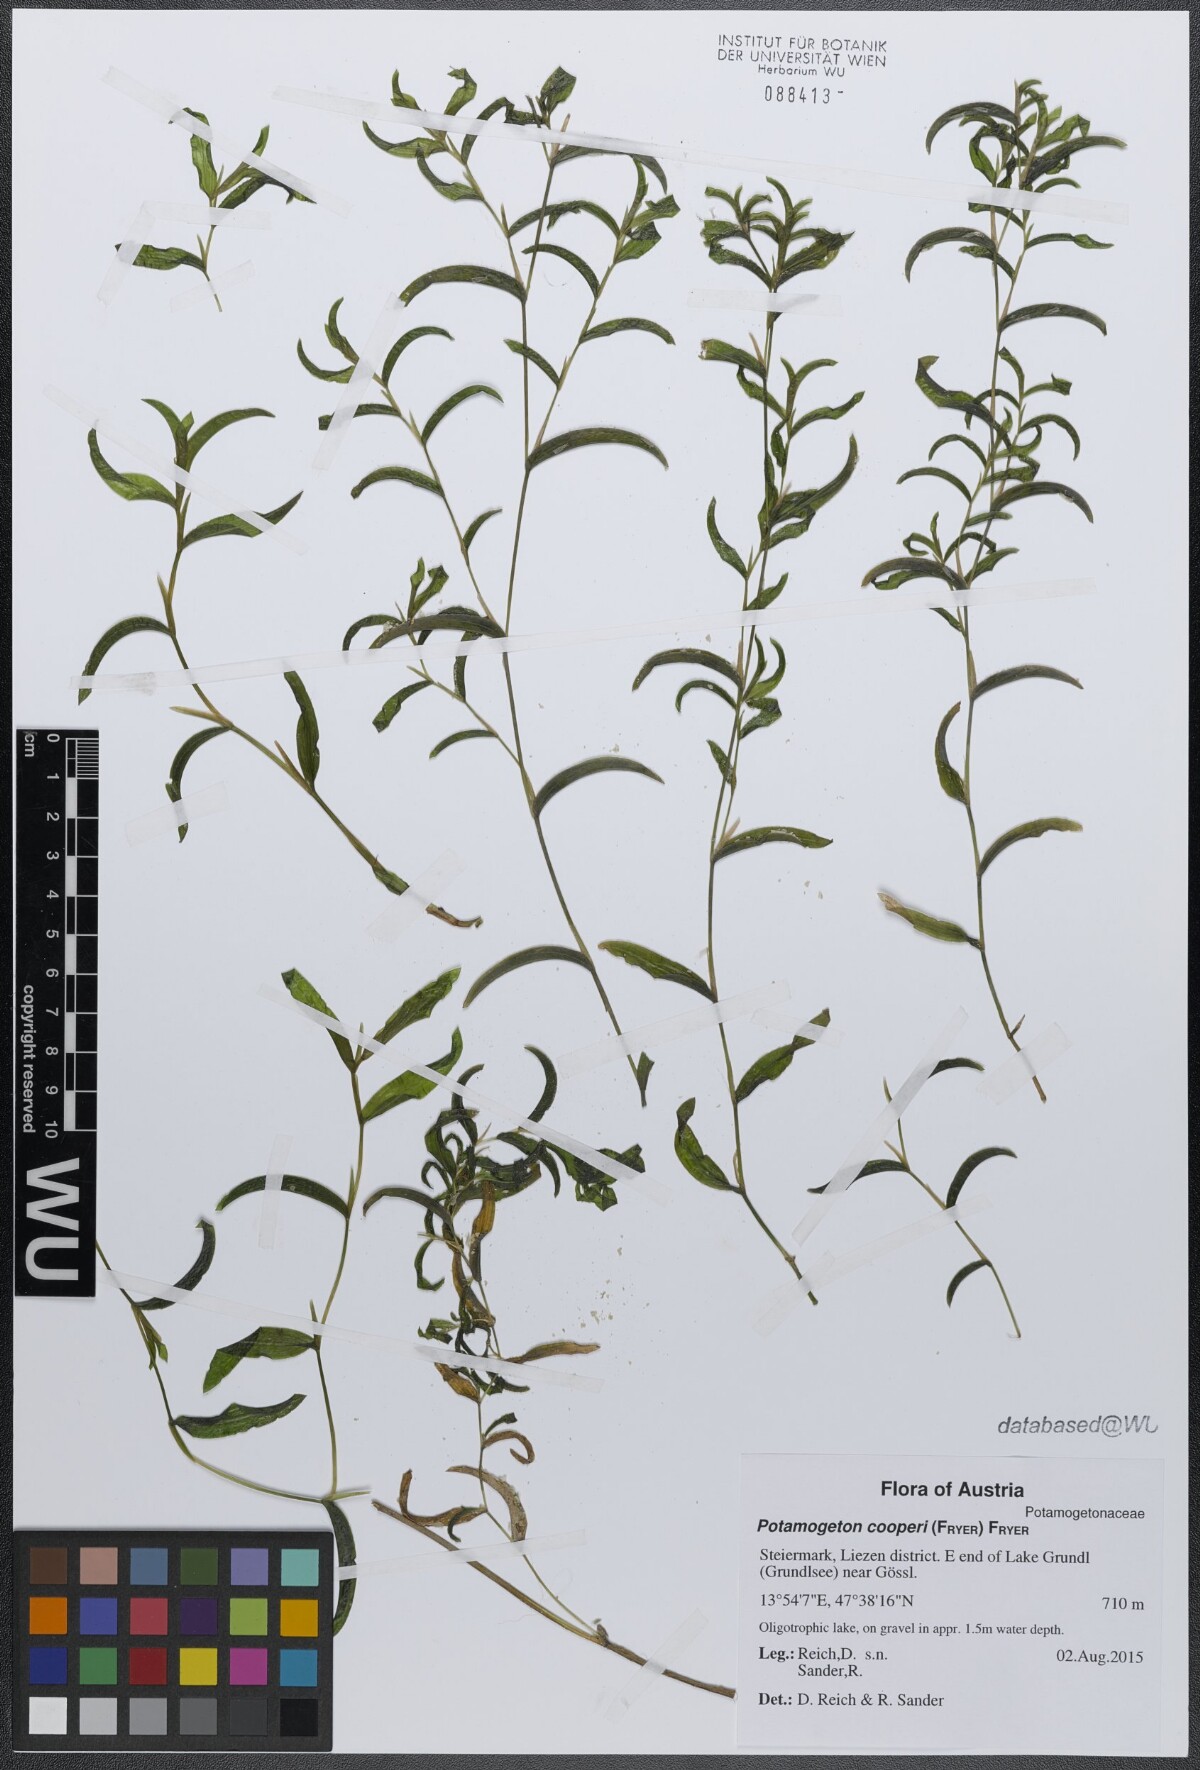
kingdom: Plantae
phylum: Tracheophyta
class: Liliopsida
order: Alismatales
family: Potamogetonaceae
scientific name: Potamogetonaceae
